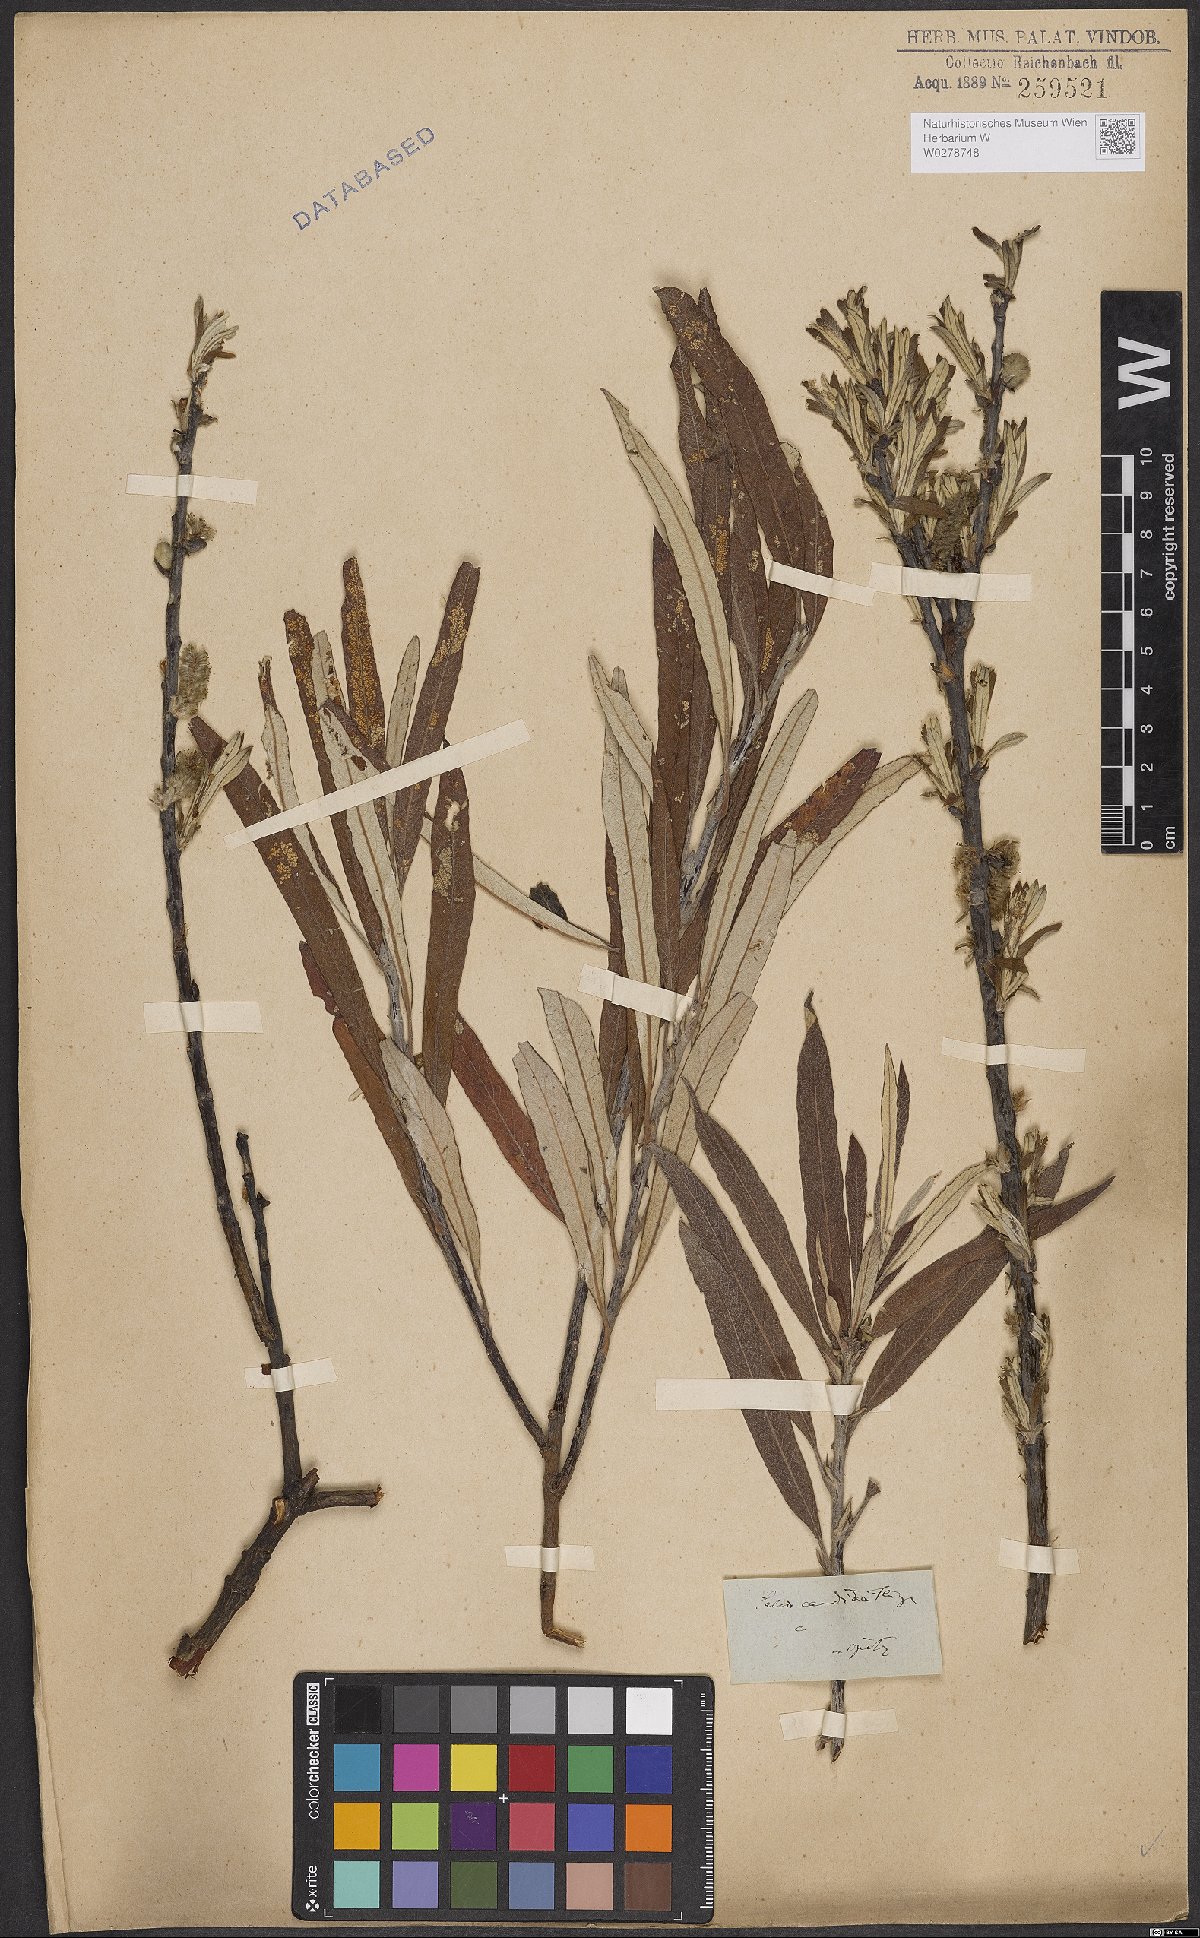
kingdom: Plantae
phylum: Tracheophyta
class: Magnoliopsida
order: Malpighiales
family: Salicaceae
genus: Salix
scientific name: Salix candida
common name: Hoary willow
